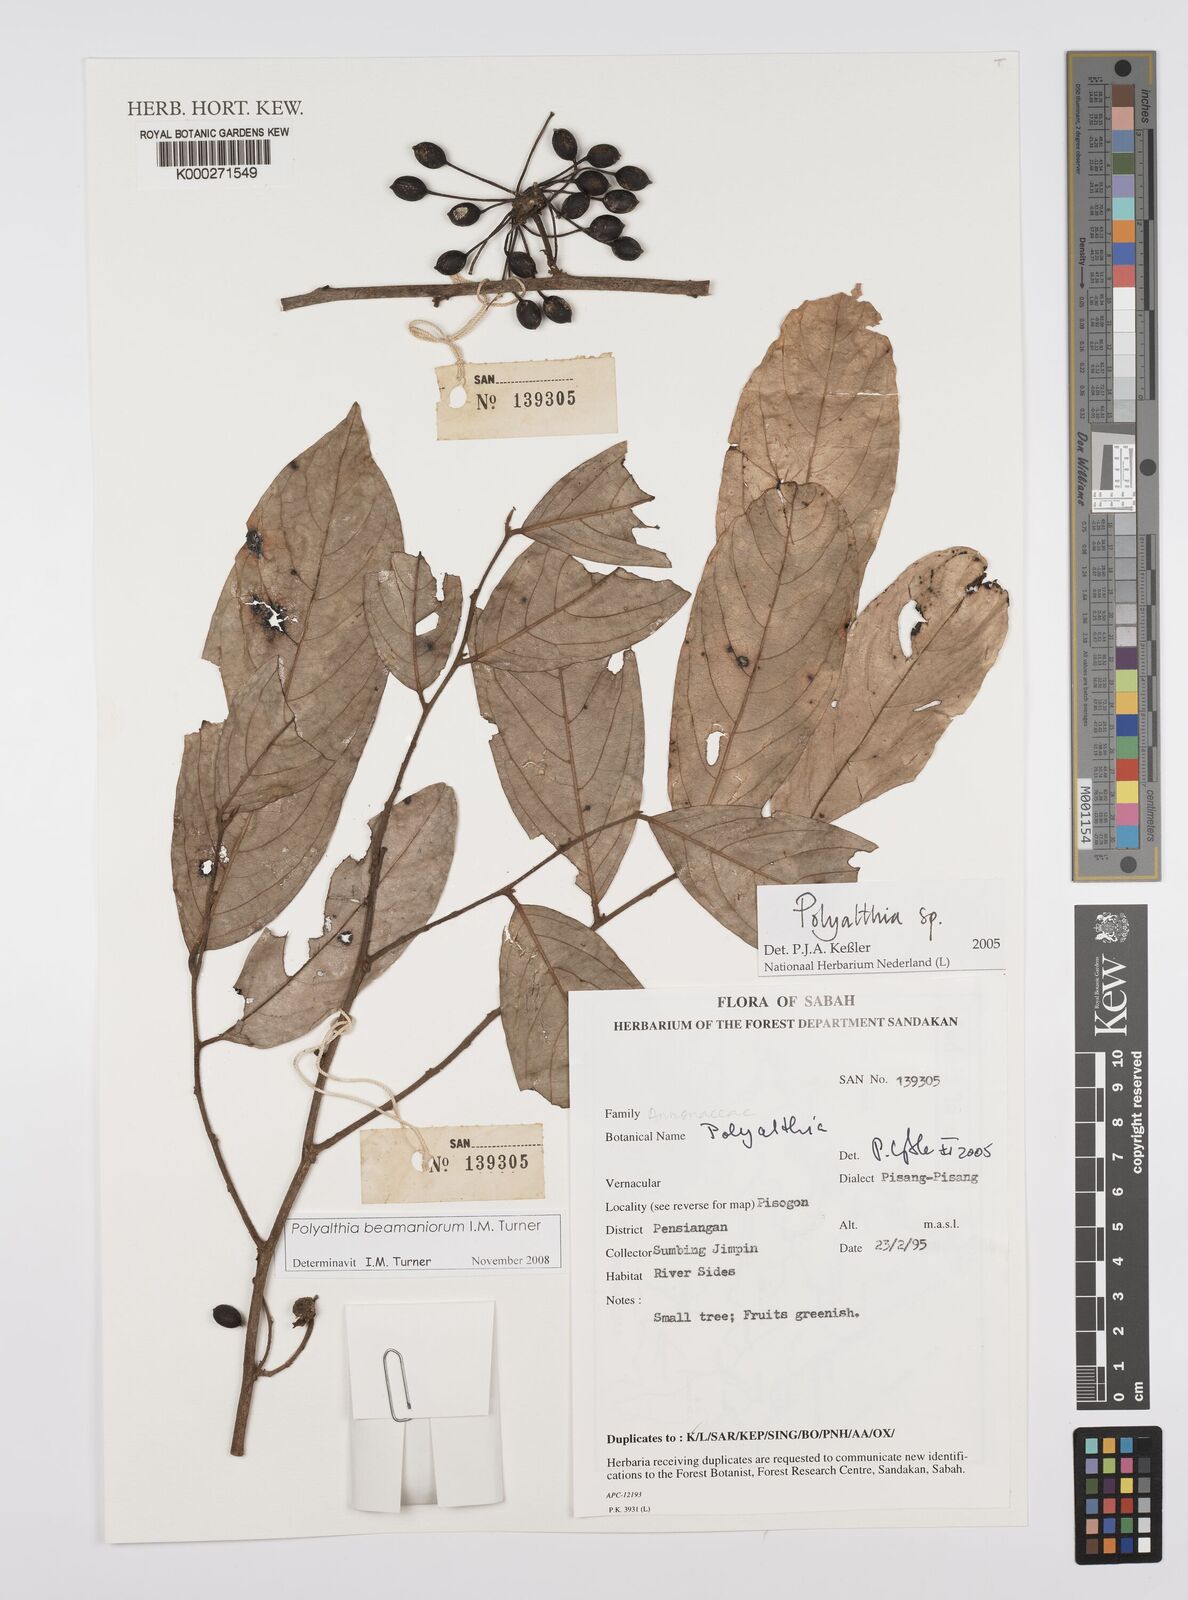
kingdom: Plantae
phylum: Tracheophyta
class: Magnoliopsida
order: Magnoliales
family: Annonaceae
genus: Polyalthia
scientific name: Polyalthia
